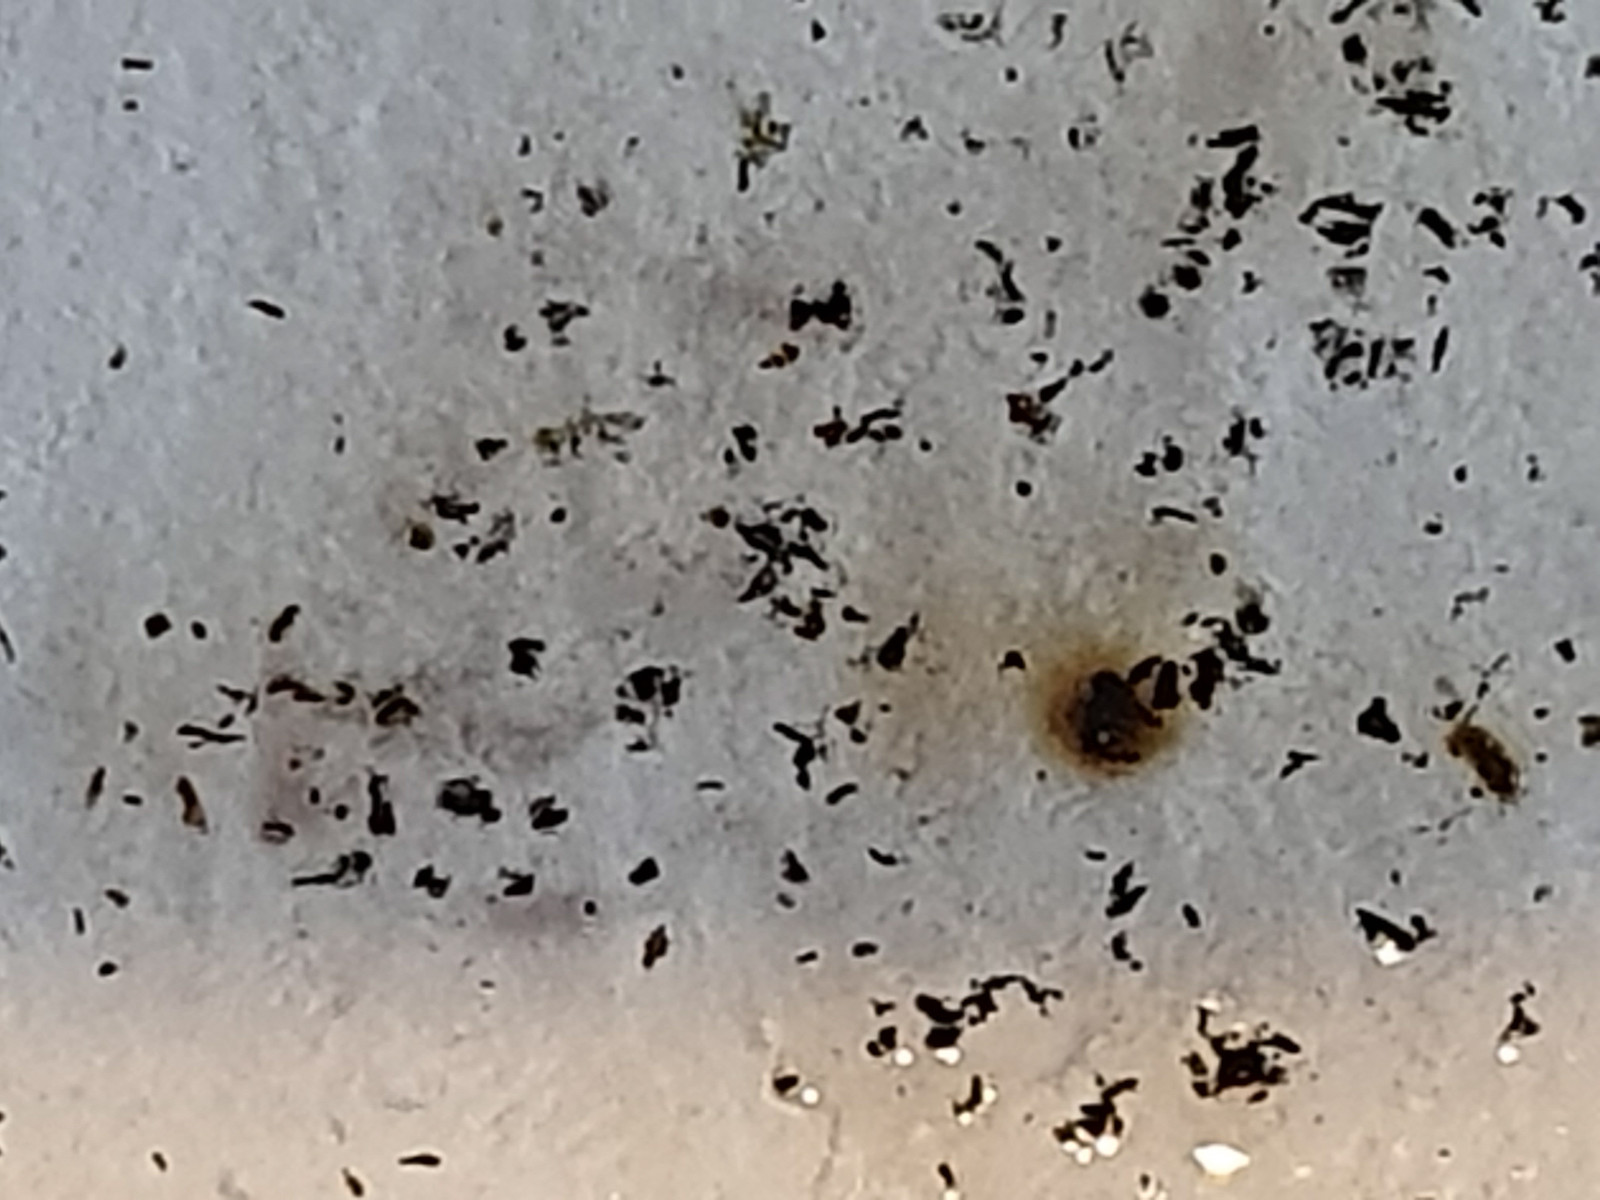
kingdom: Fungi
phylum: Ascomycota
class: Sordariomycetes
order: Xylariales
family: Hypoxylaceae
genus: Hypoxylon
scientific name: Hypoxylon fuscoides
